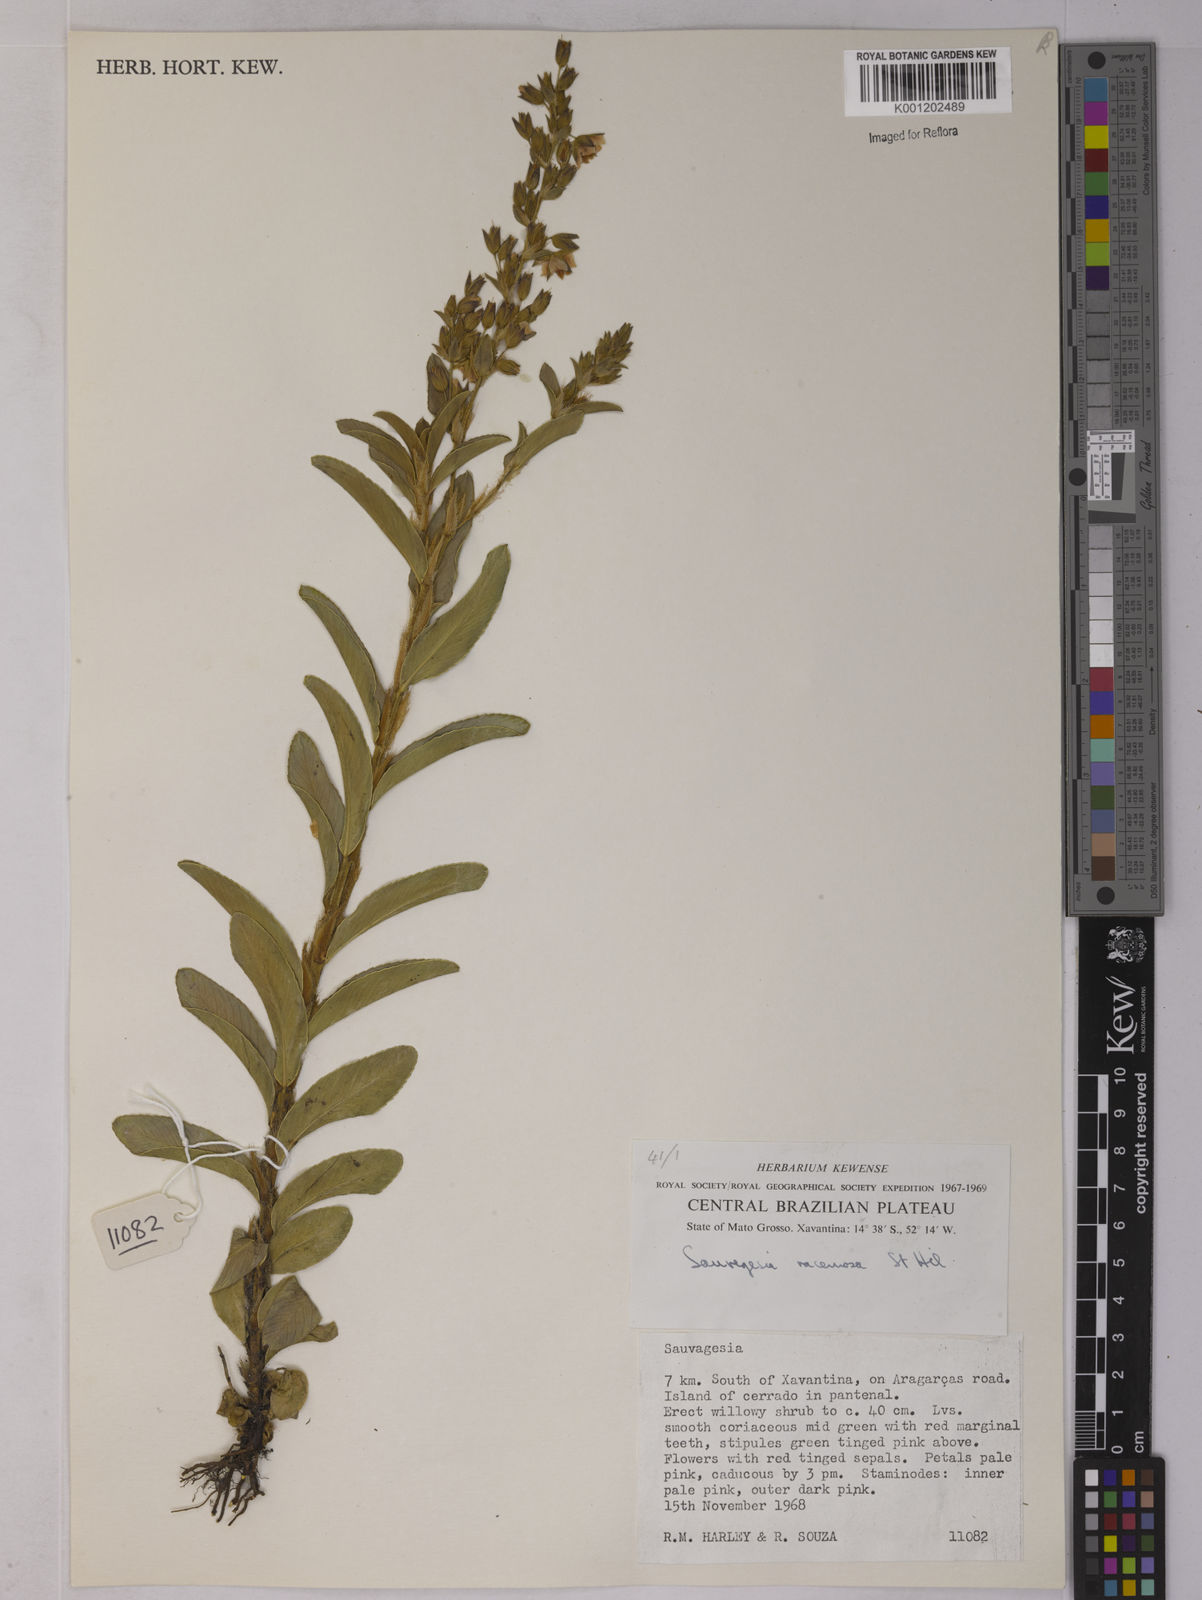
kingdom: Plantae
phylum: Tracheophyta
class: Magnoliopsida
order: Malpighiales
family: Ochnaceae
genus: Sauvagesia
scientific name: Sauvagesia racemosa
